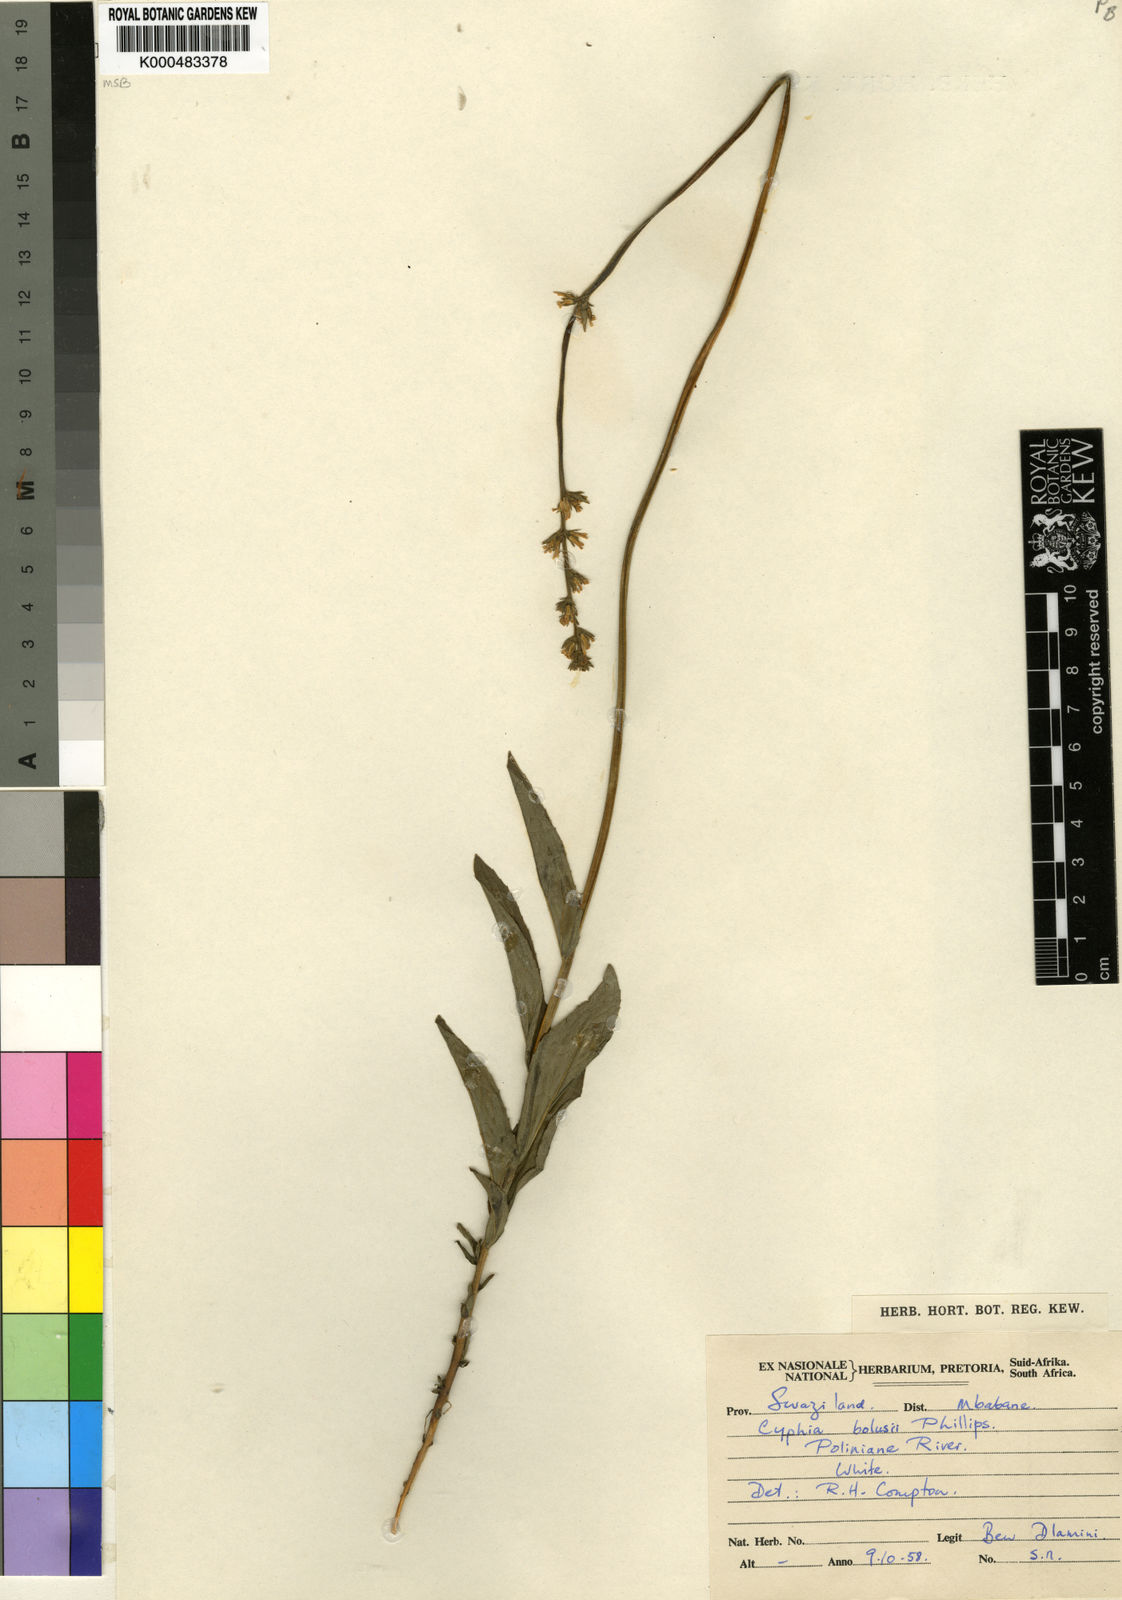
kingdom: Plantae
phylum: Tracheophyta
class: Magnoliopsida
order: Asterales
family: Campanulaceae
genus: Cyphia
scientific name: Cyphia bolusii
